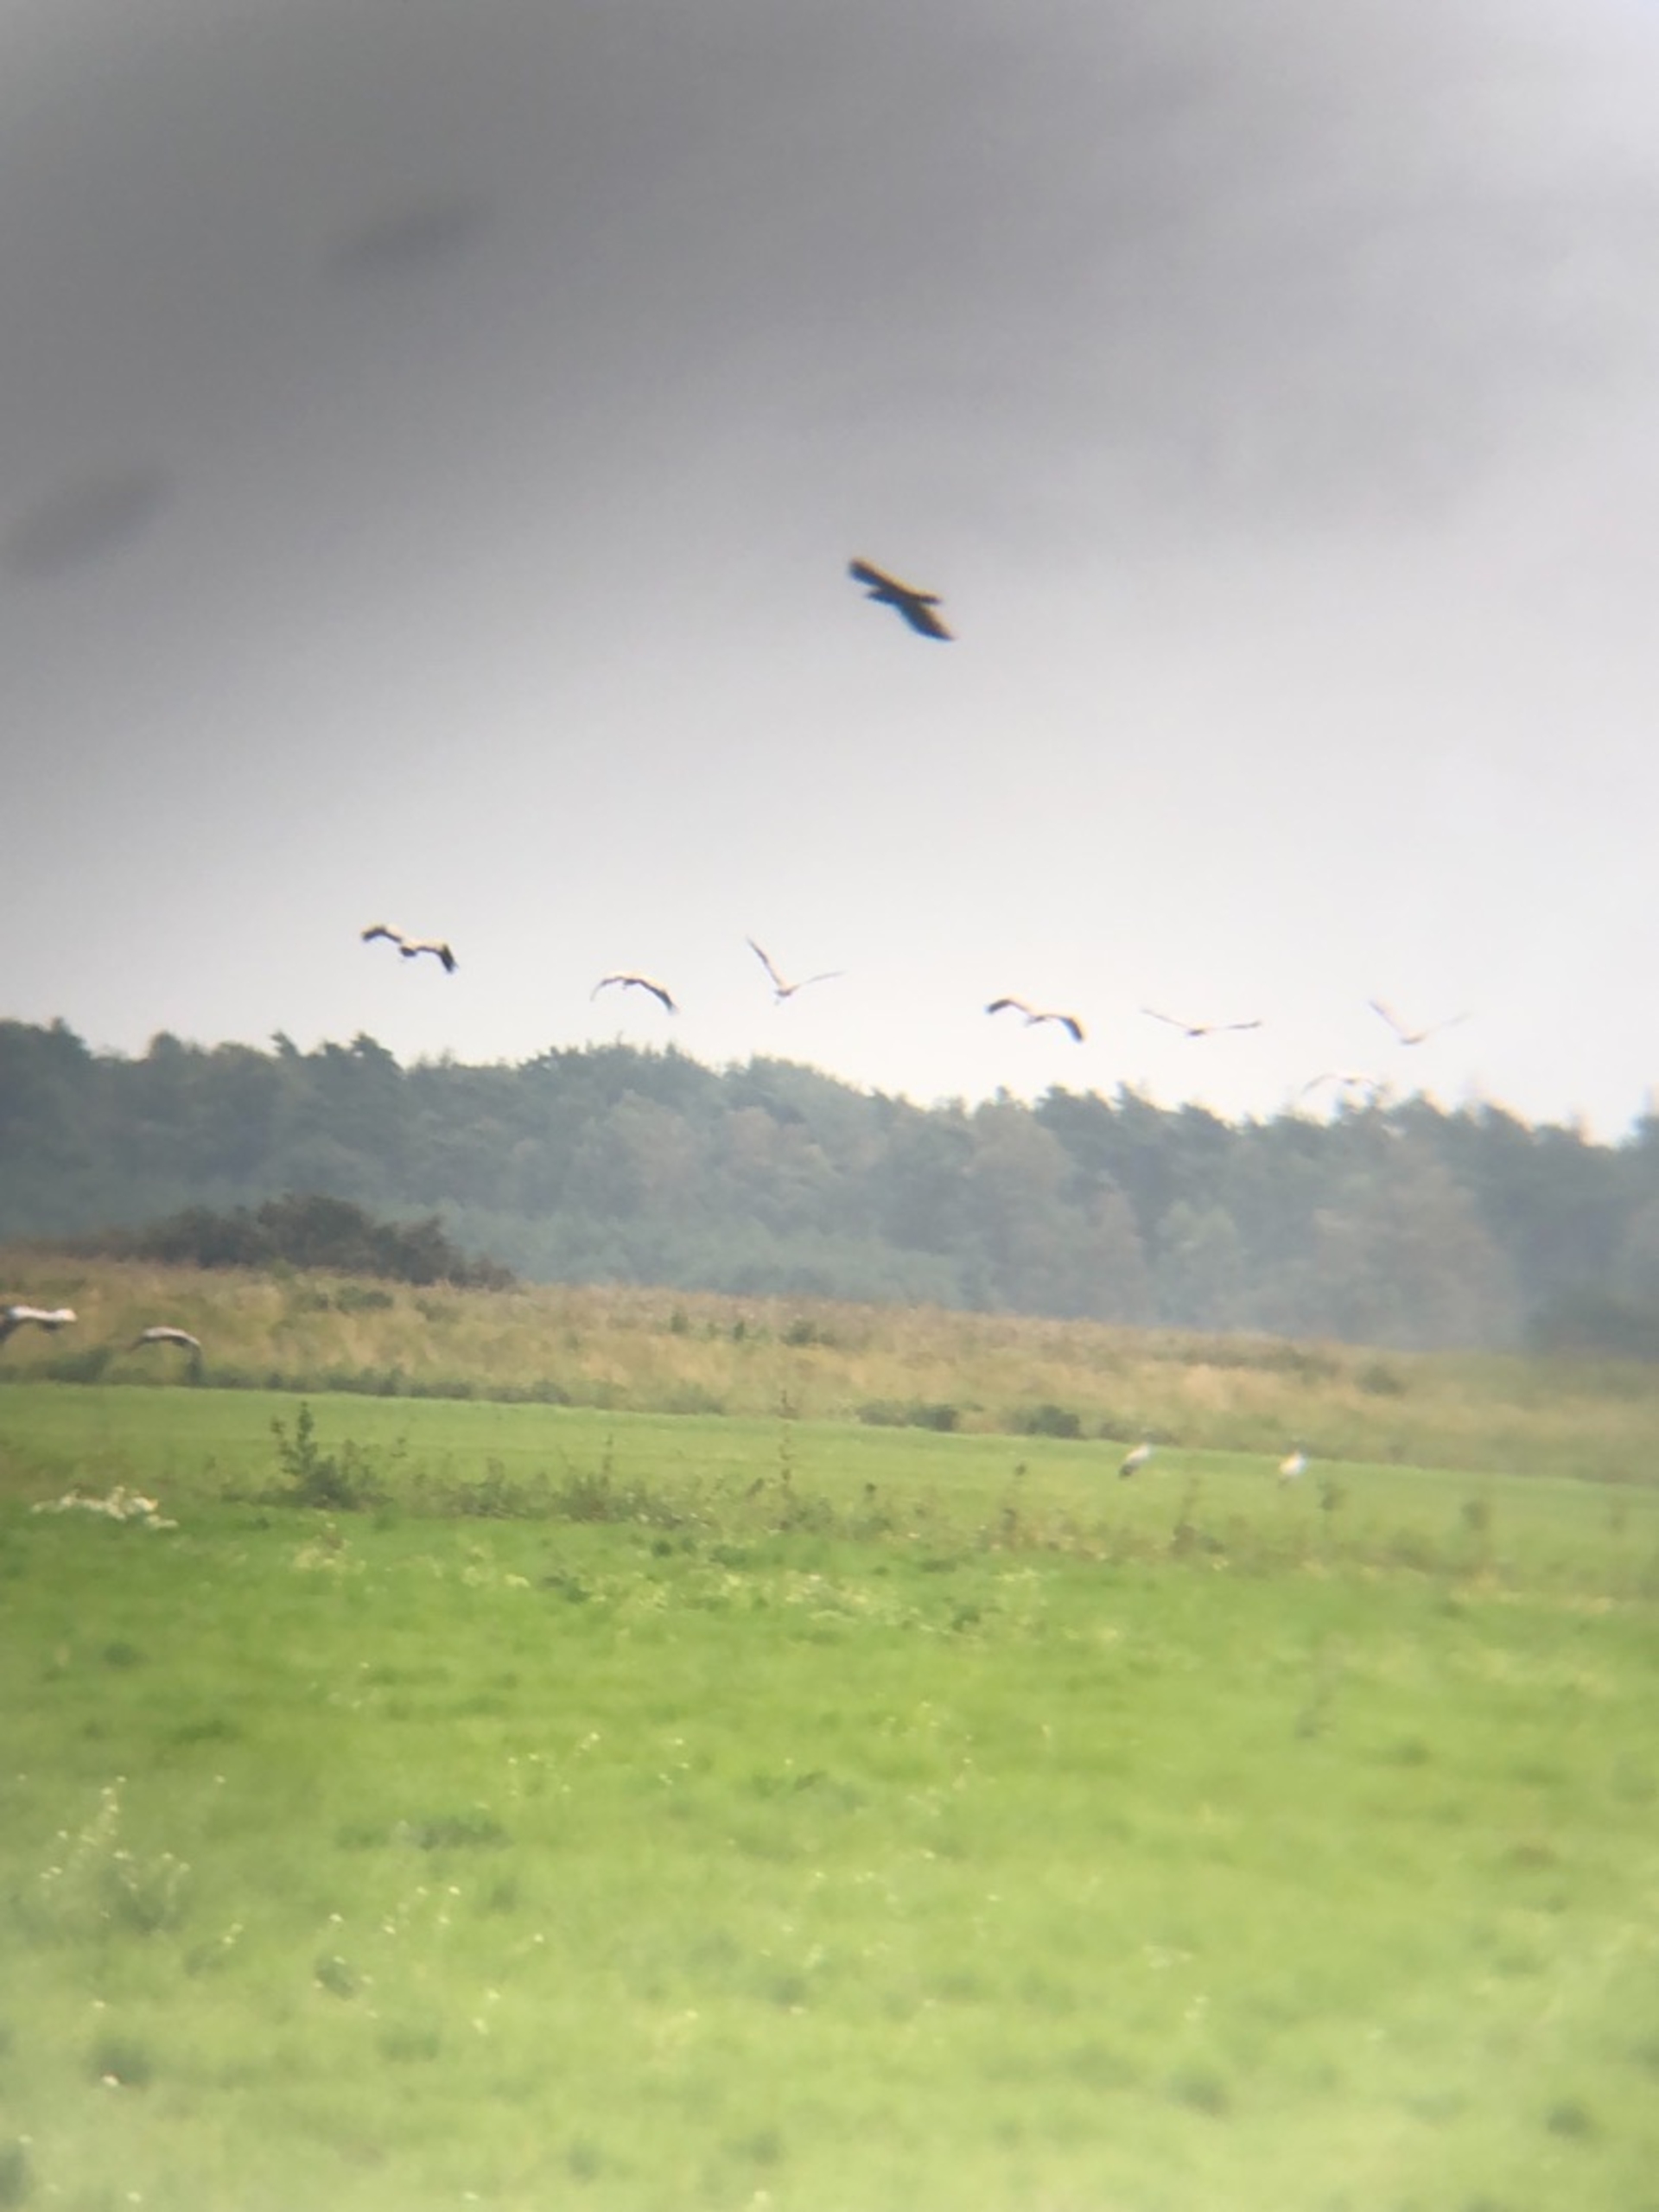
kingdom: Animalia
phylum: Chordata
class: Aves
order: Gruiformes
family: Gruidae
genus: Grus
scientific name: Grus grus
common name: Trane
